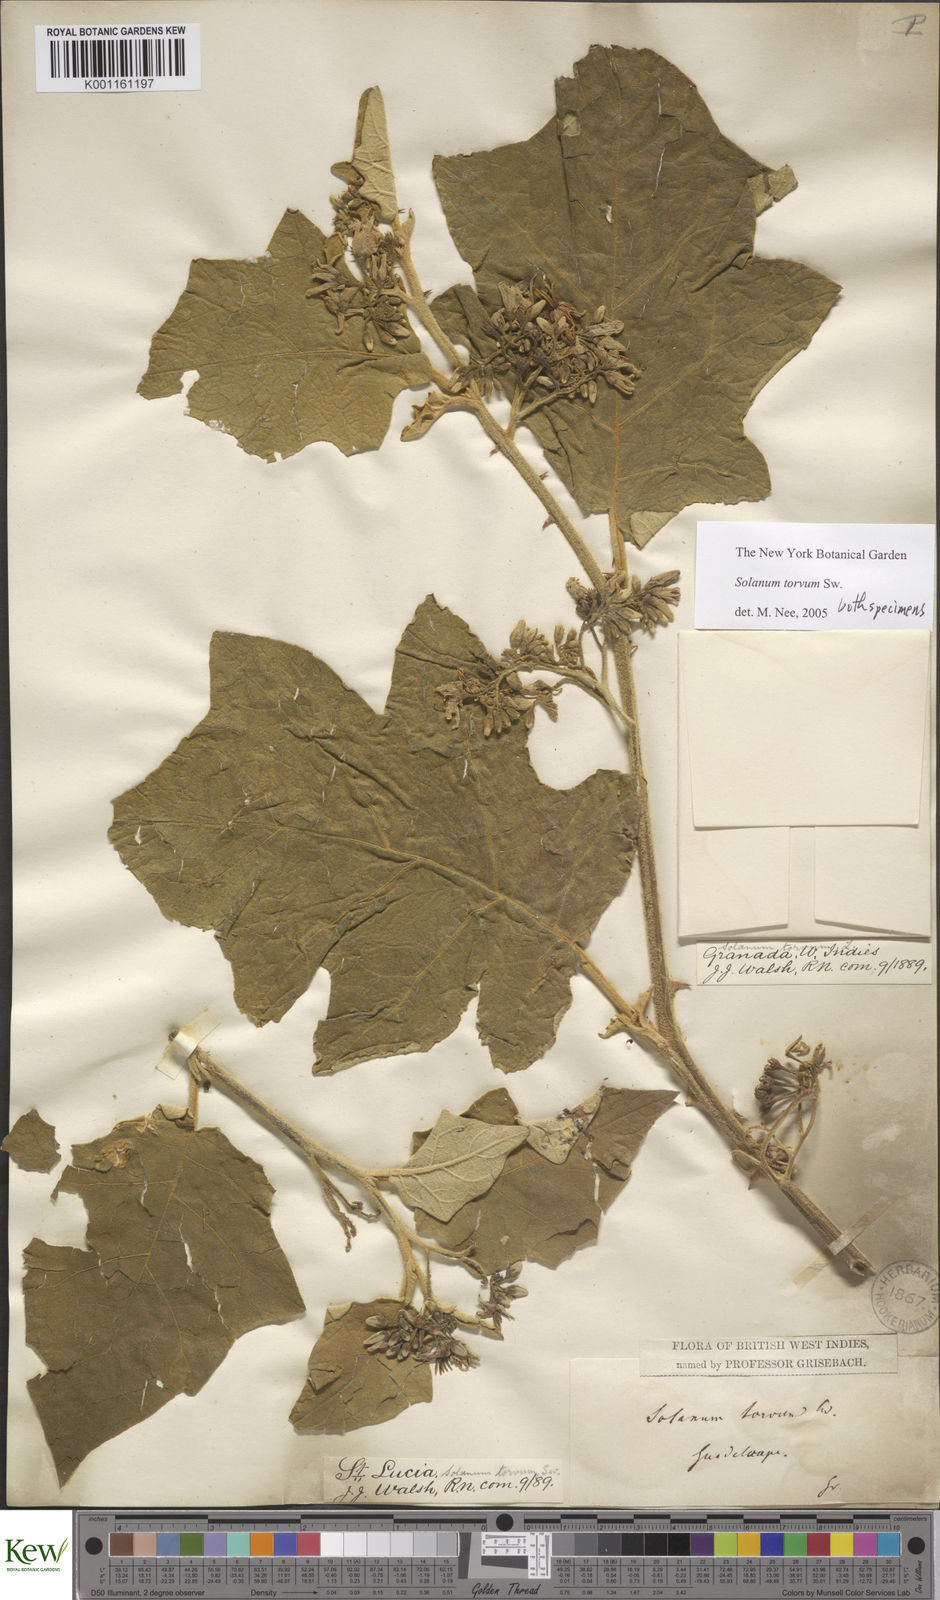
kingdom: Plantae
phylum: Tracheophyta
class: Magnoliopsida
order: Solanales
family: Solanaceae
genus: Solanum
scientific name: Solanum torvum
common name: Turkey berry
